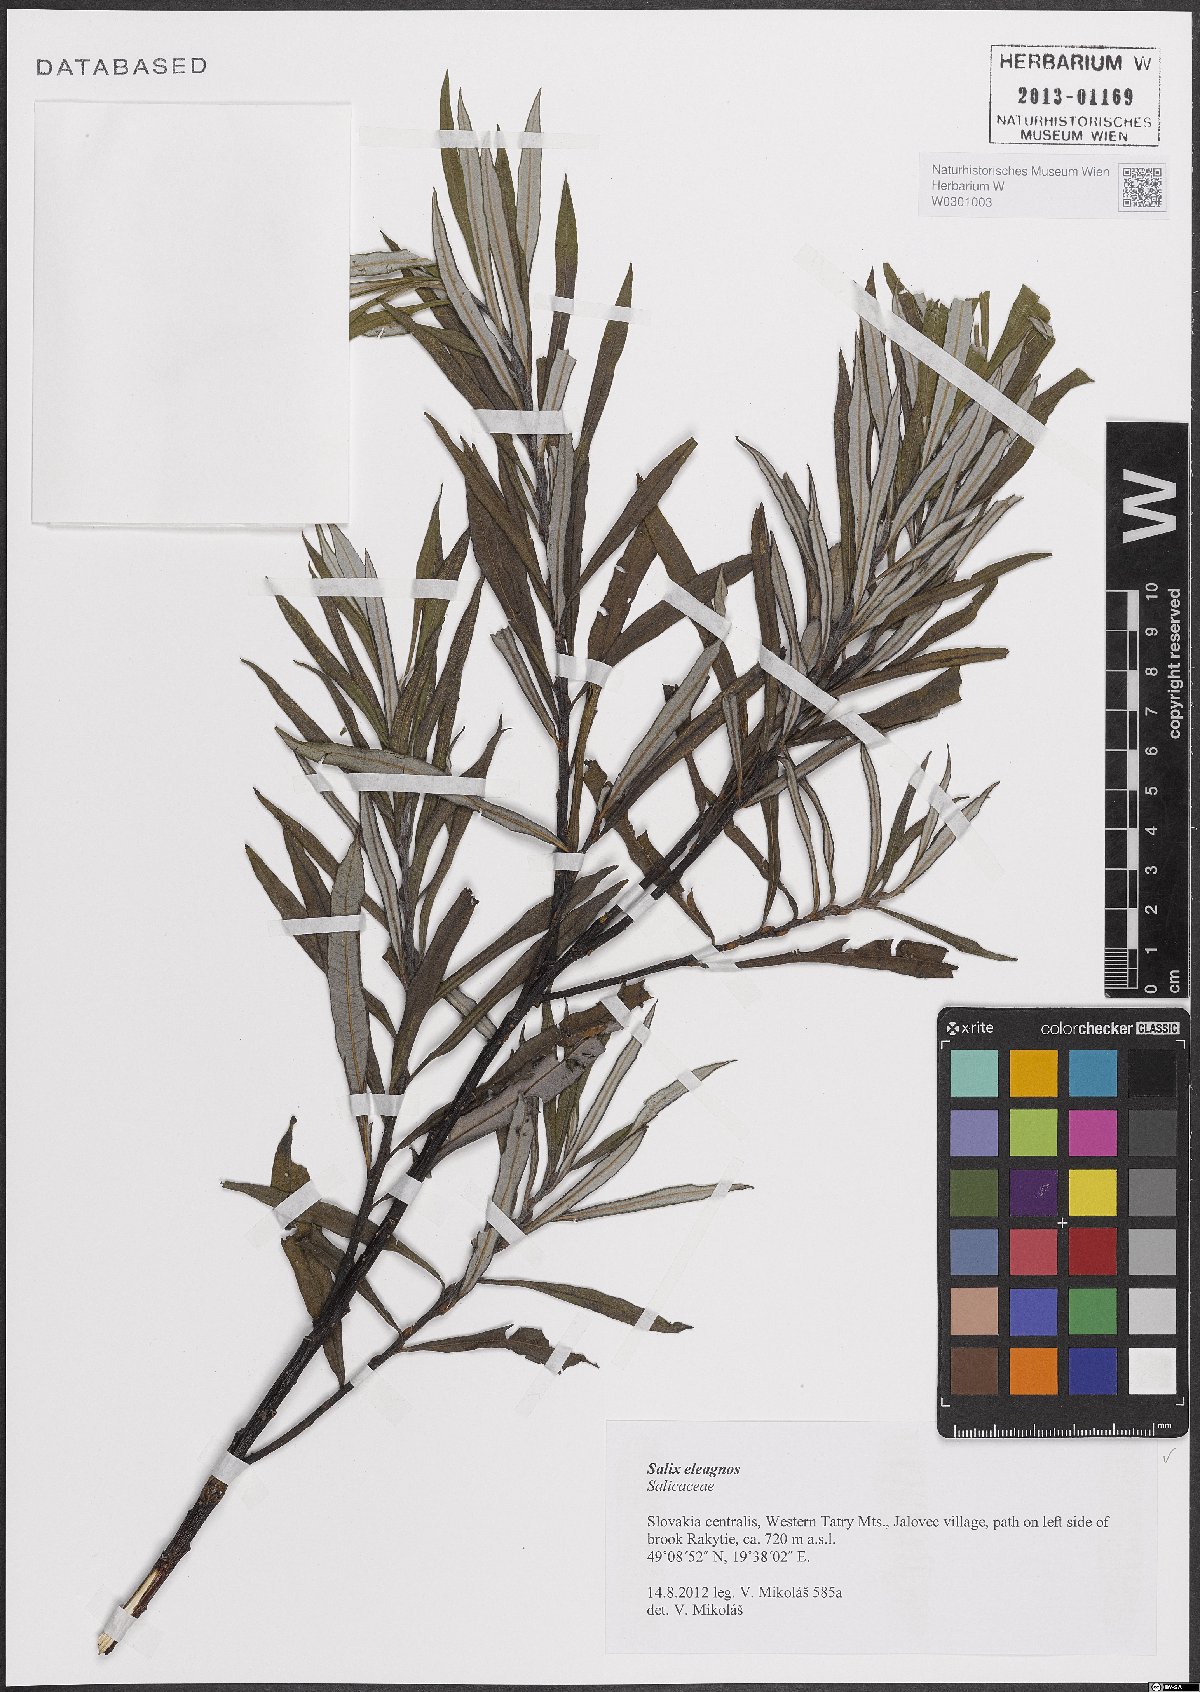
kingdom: Plantae
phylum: Tracheophyta
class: Magnoliopsida
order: Malpighiales
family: Salicaceae
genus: Salix
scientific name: Salix eleagnos
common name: Elaeagnus willow
